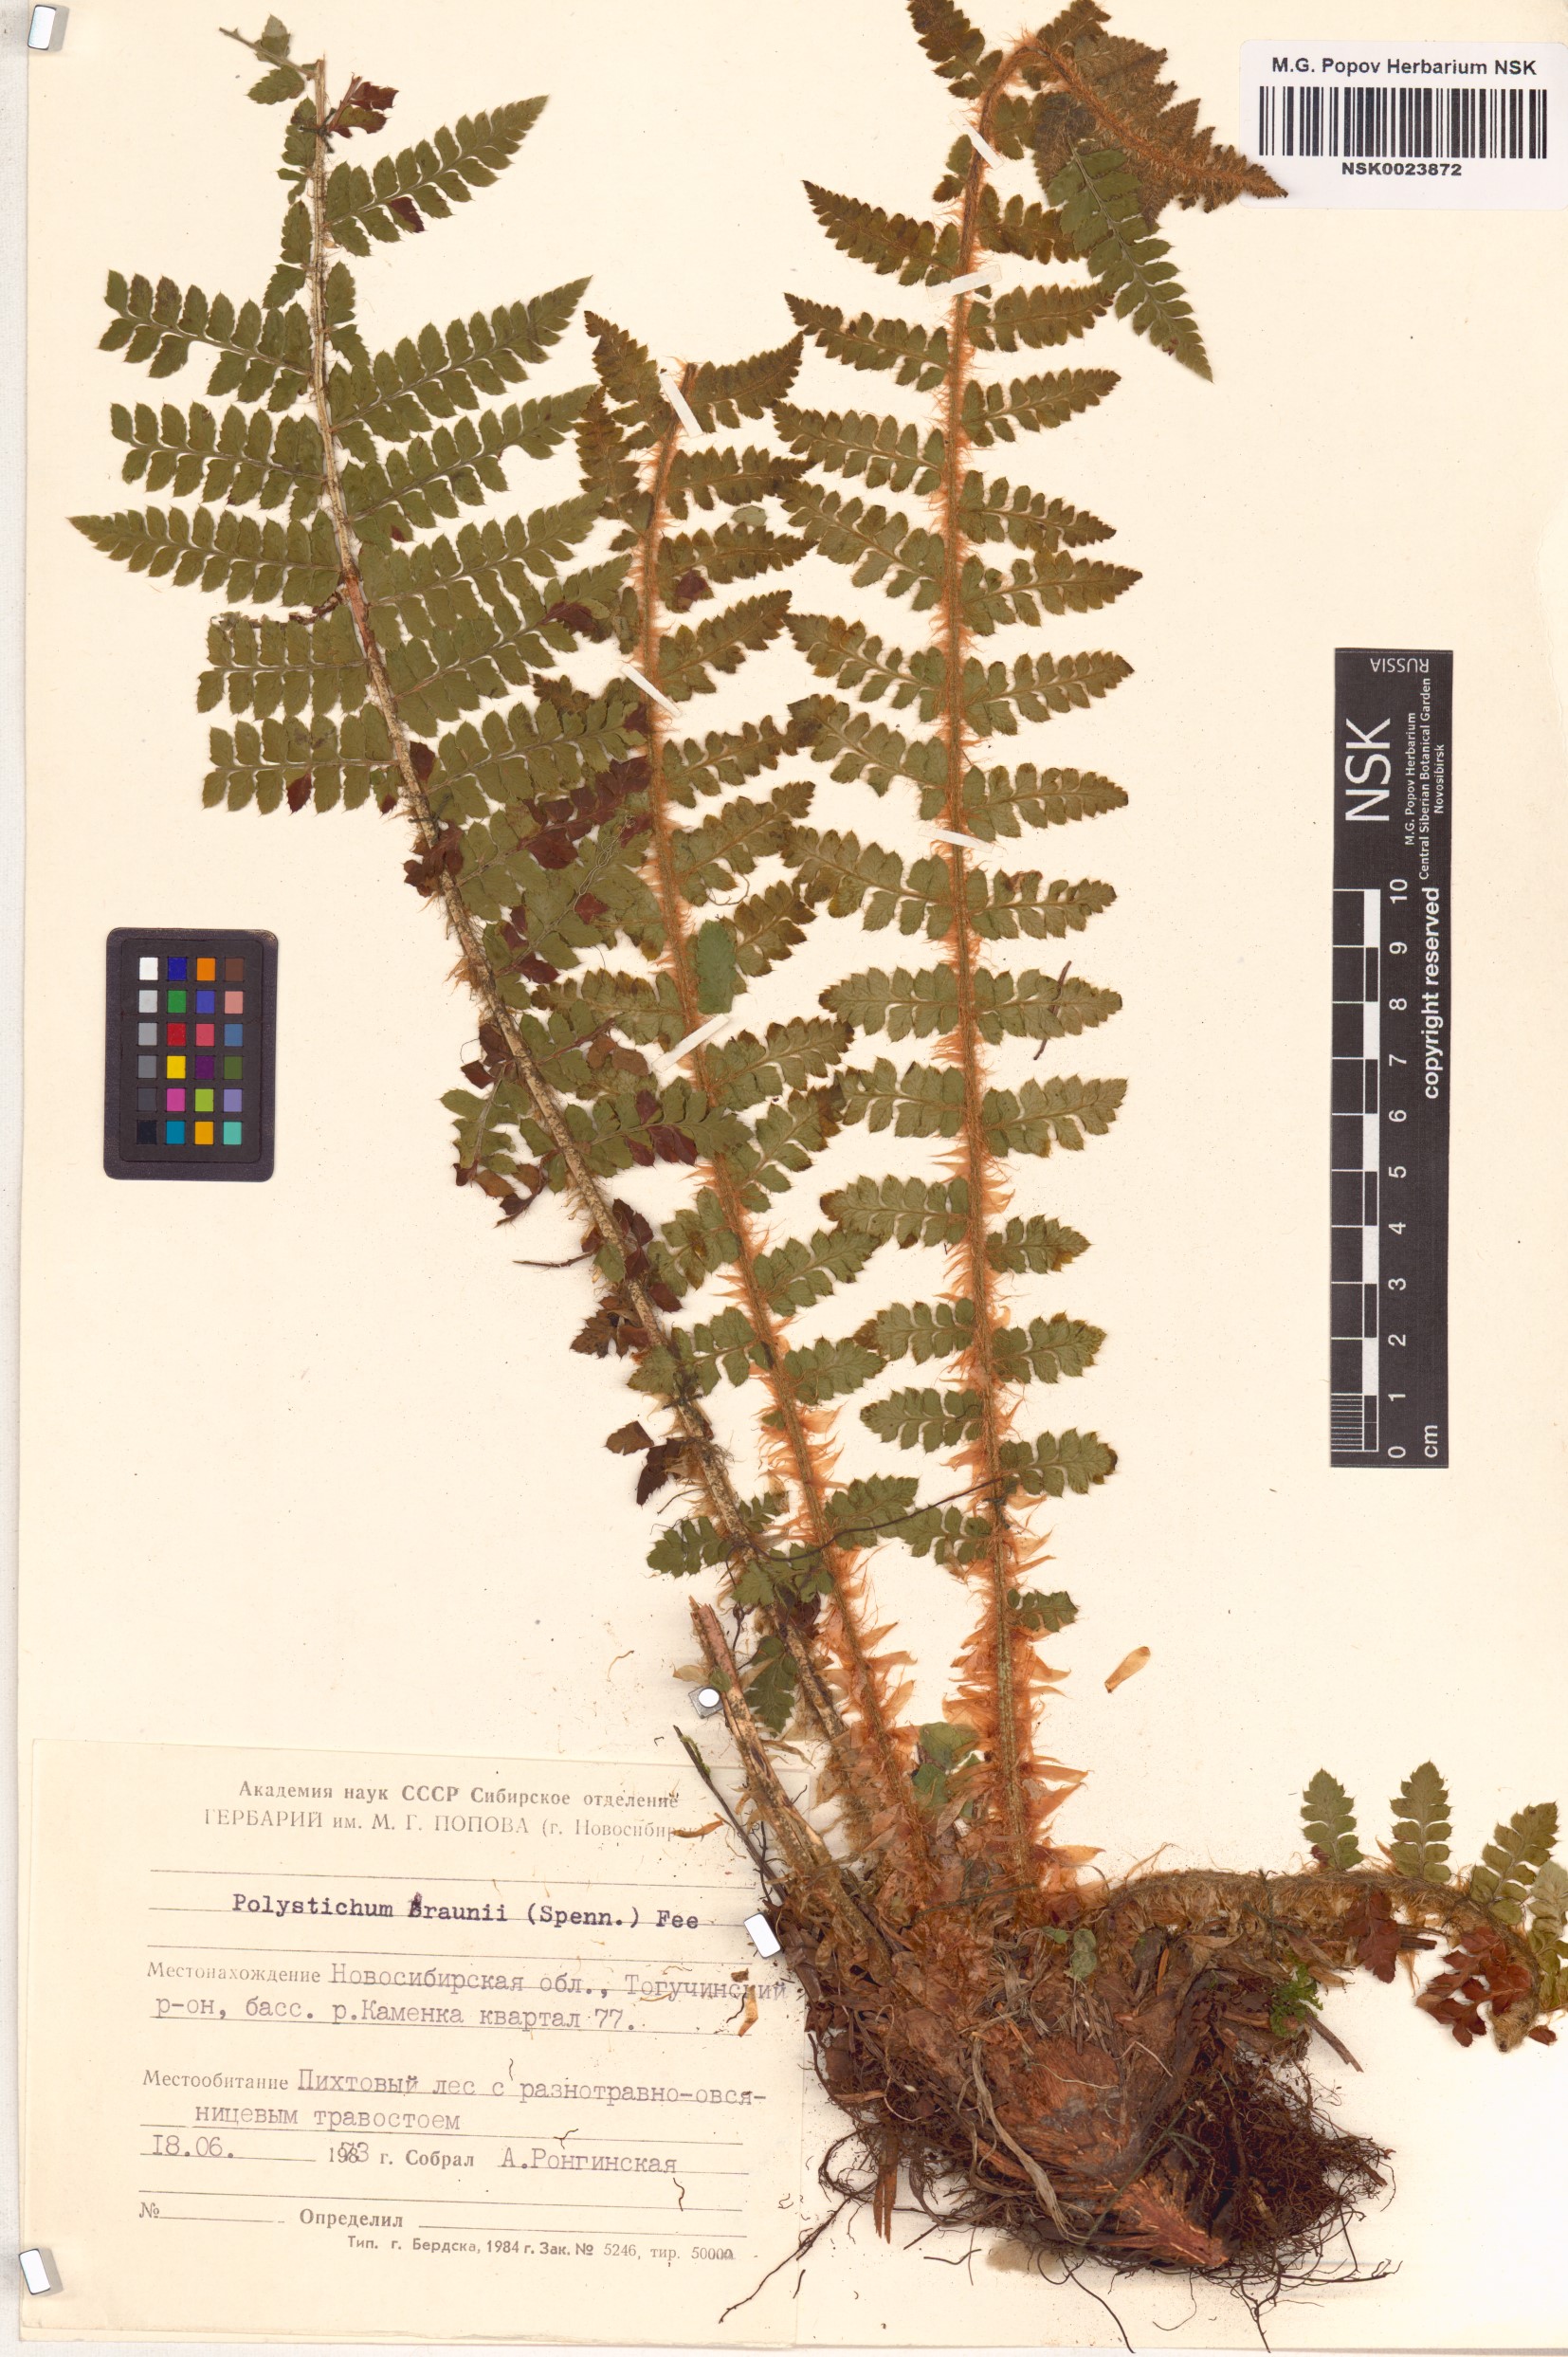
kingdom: Plantae
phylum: Tracheophyta
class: Polypodiopsida
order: Polypodiales
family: Dryopteridaceae
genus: Polystichum
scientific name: Polystichum braunii
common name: Braun's holly fern
